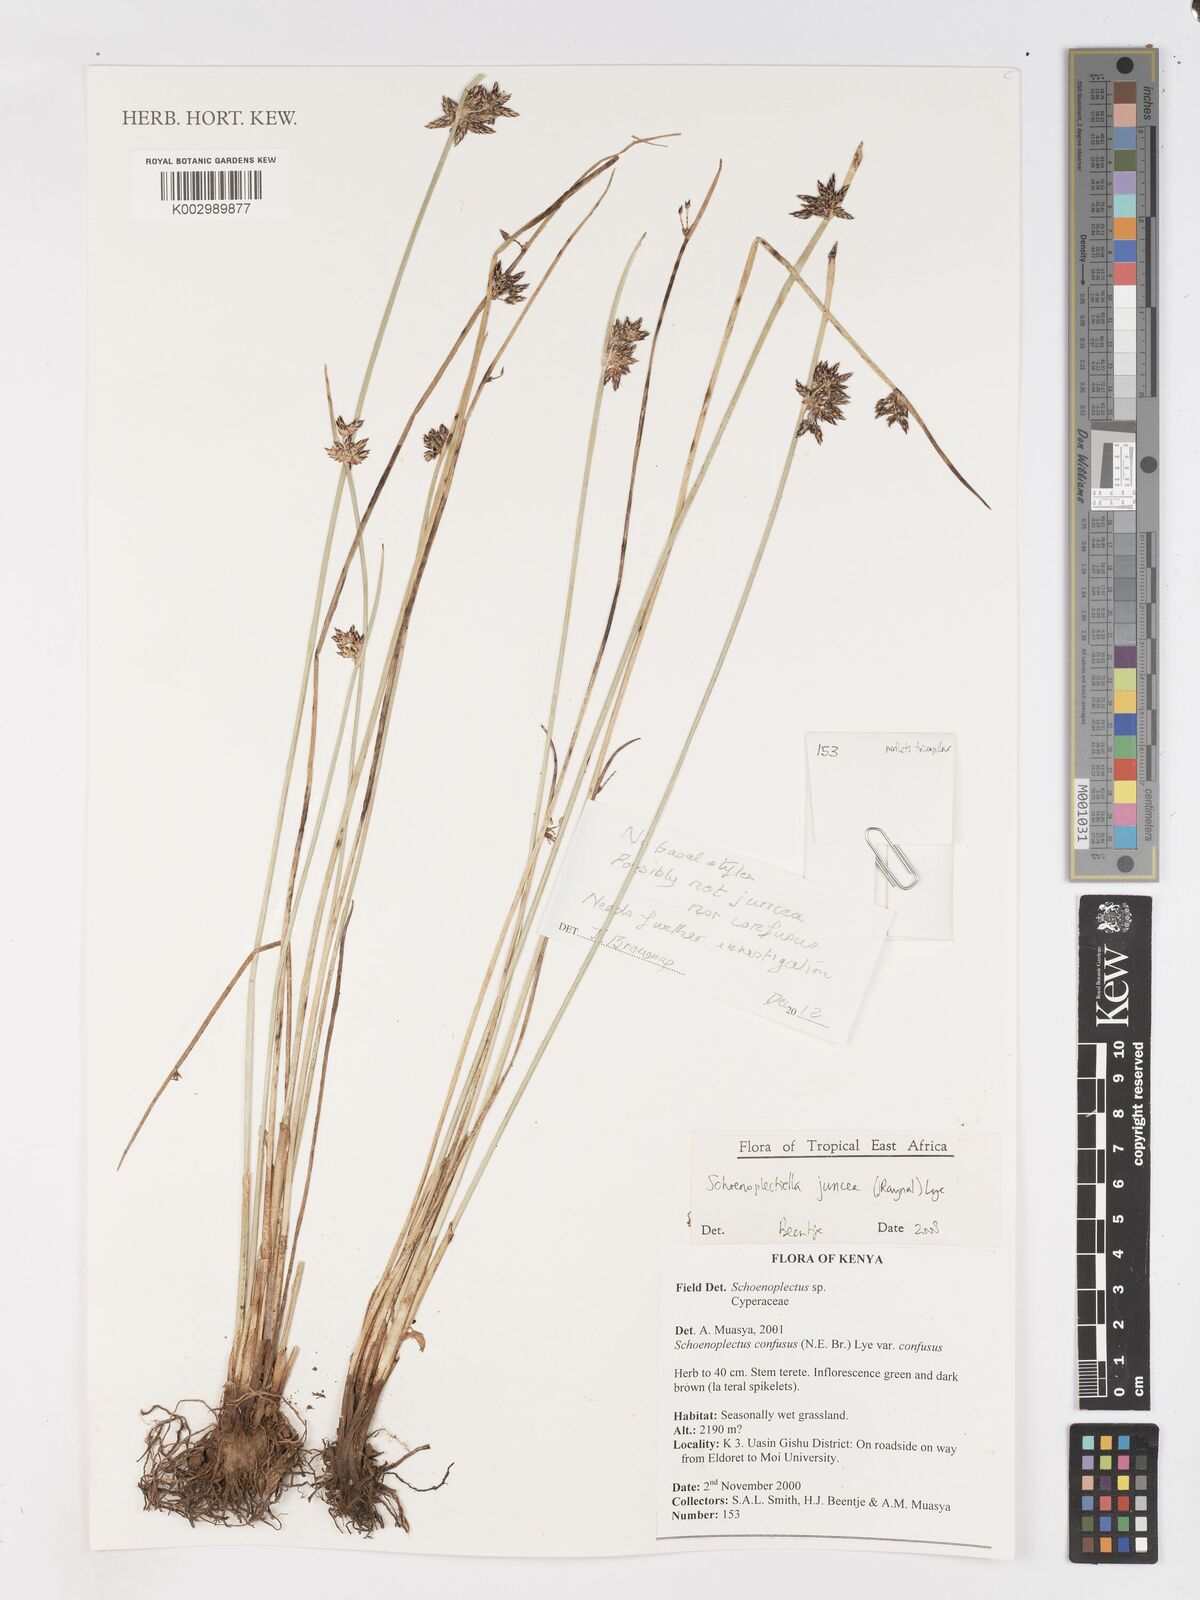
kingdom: Plantae
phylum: Tracheophyta
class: Liliopsida
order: Poales
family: Cyperaceae
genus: Schoenoplectiella
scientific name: Schoenoplectiella juncea
